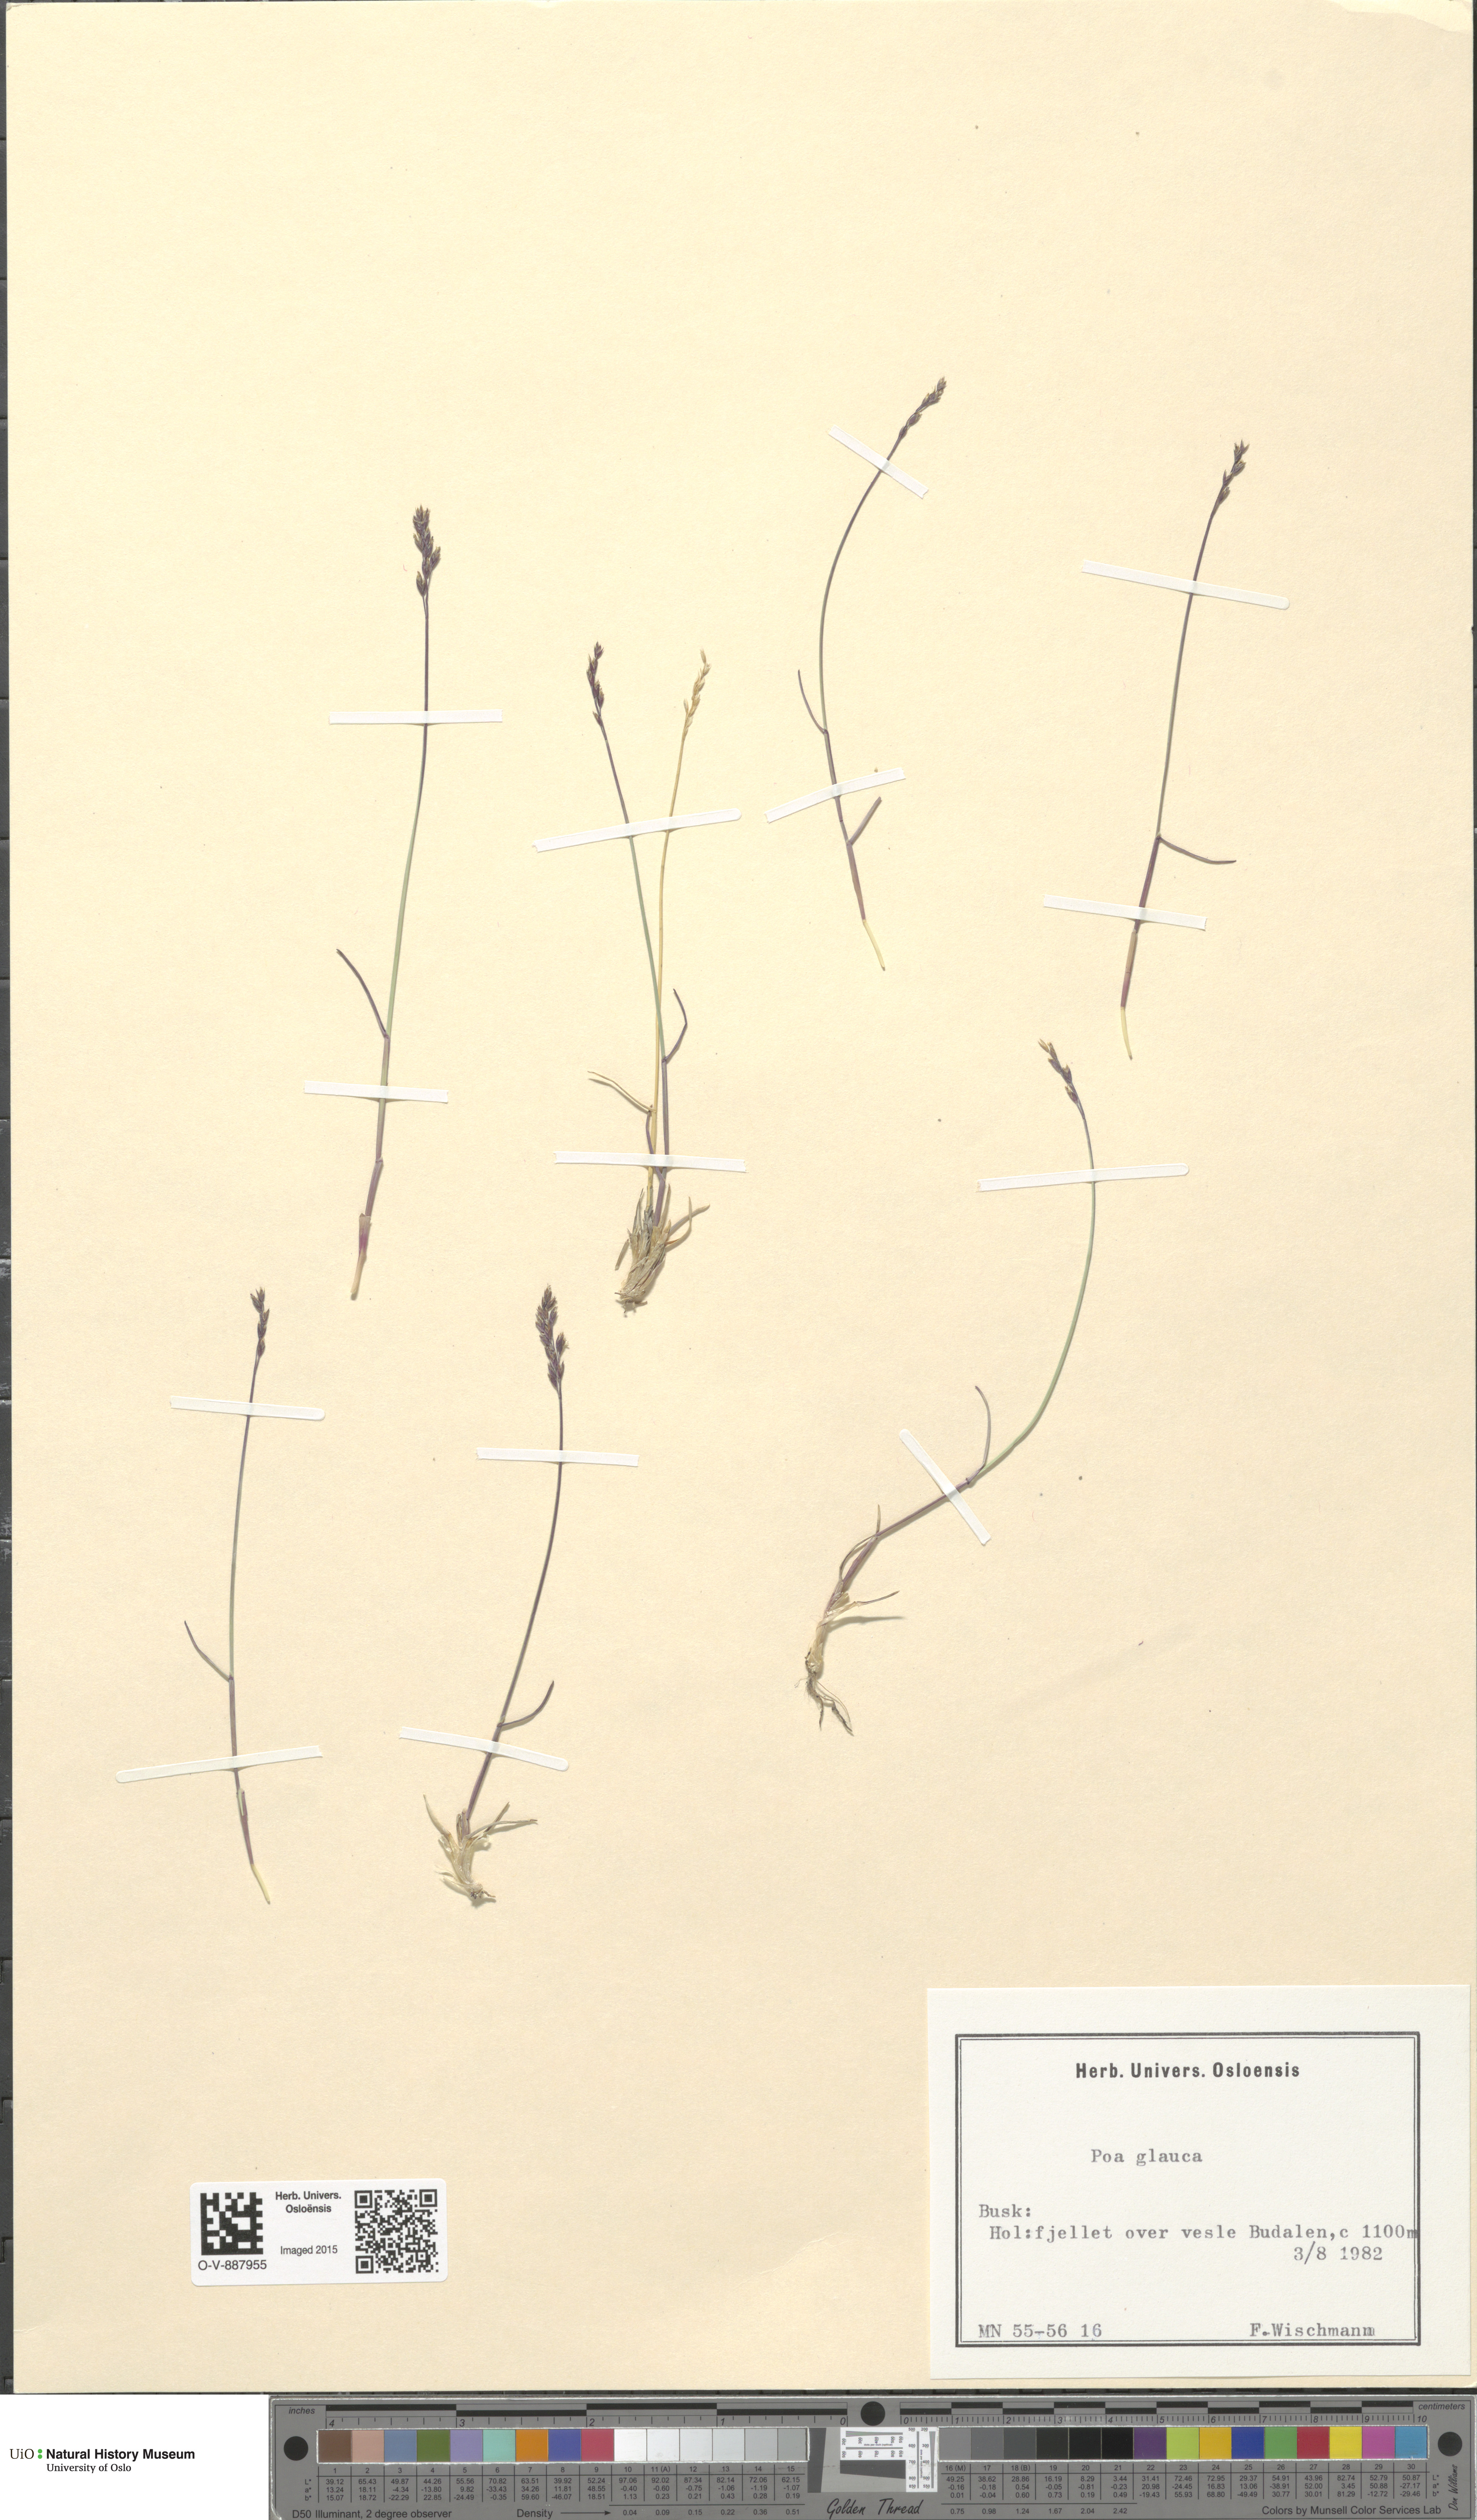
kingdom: Plantae
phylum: Tracheophyta
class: Liliopsida
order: Poales
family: Poaceae
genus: Poa
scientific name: Poa glauca
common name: Glaucous bluegrass
